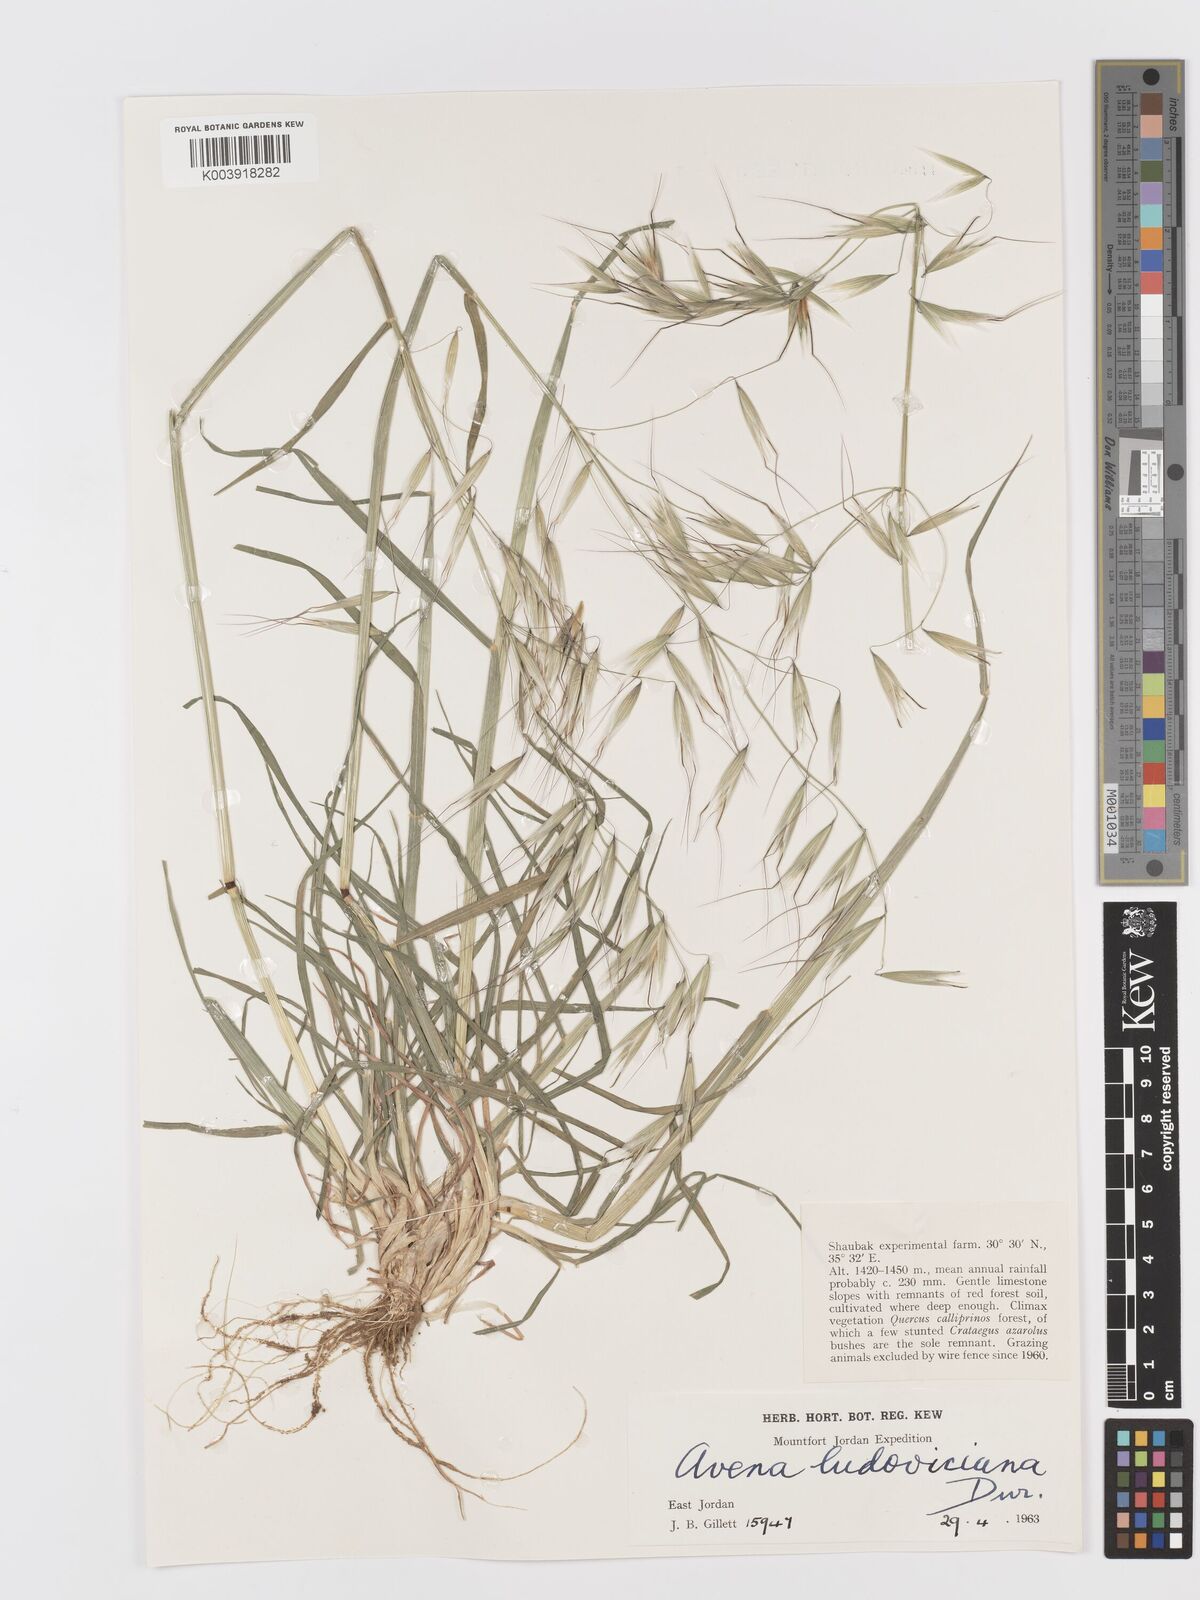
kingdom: Plantae
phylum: Tracheophyta
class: Liliopsida
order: Poales
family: Poaceae
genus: Avena
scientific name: Avena sterilis
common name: Animated oat
